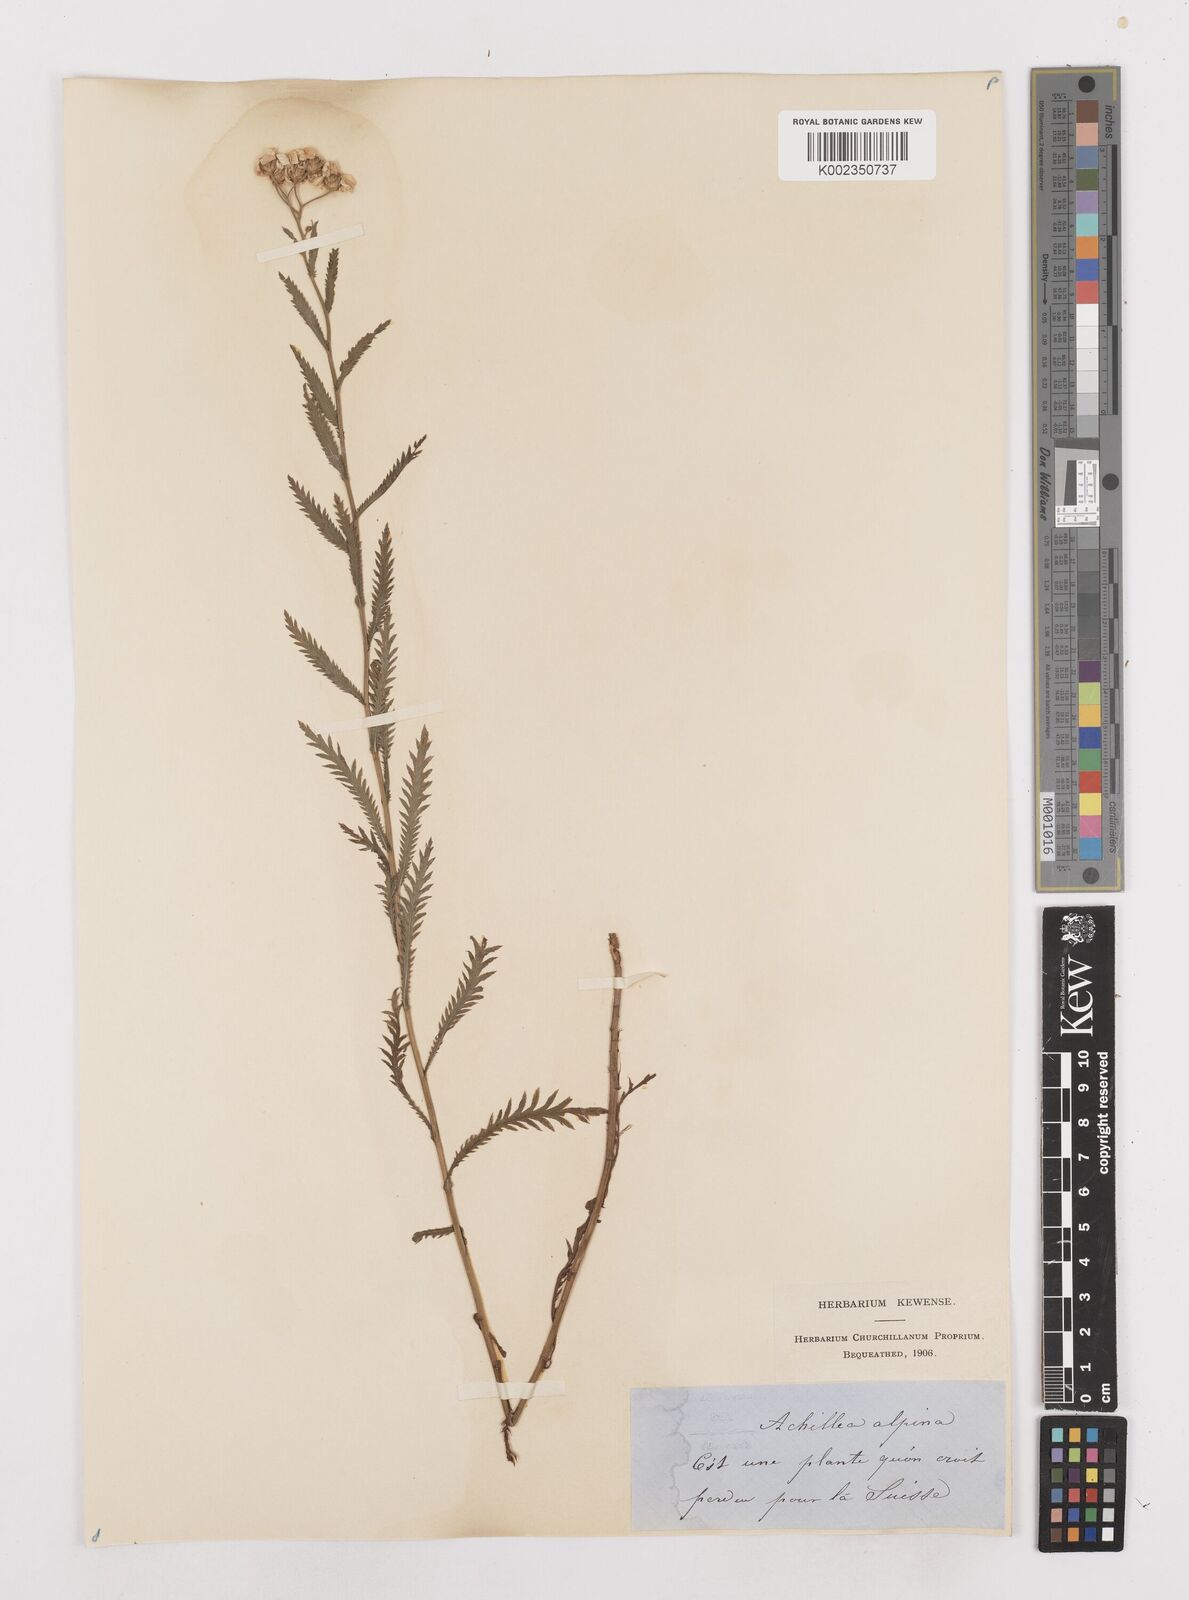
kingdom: Plantae
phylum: Tracheophyta
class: Magnoliopsida
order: Asterales
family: Asteraceae
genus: Achillea
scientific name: Achillea impatiens
